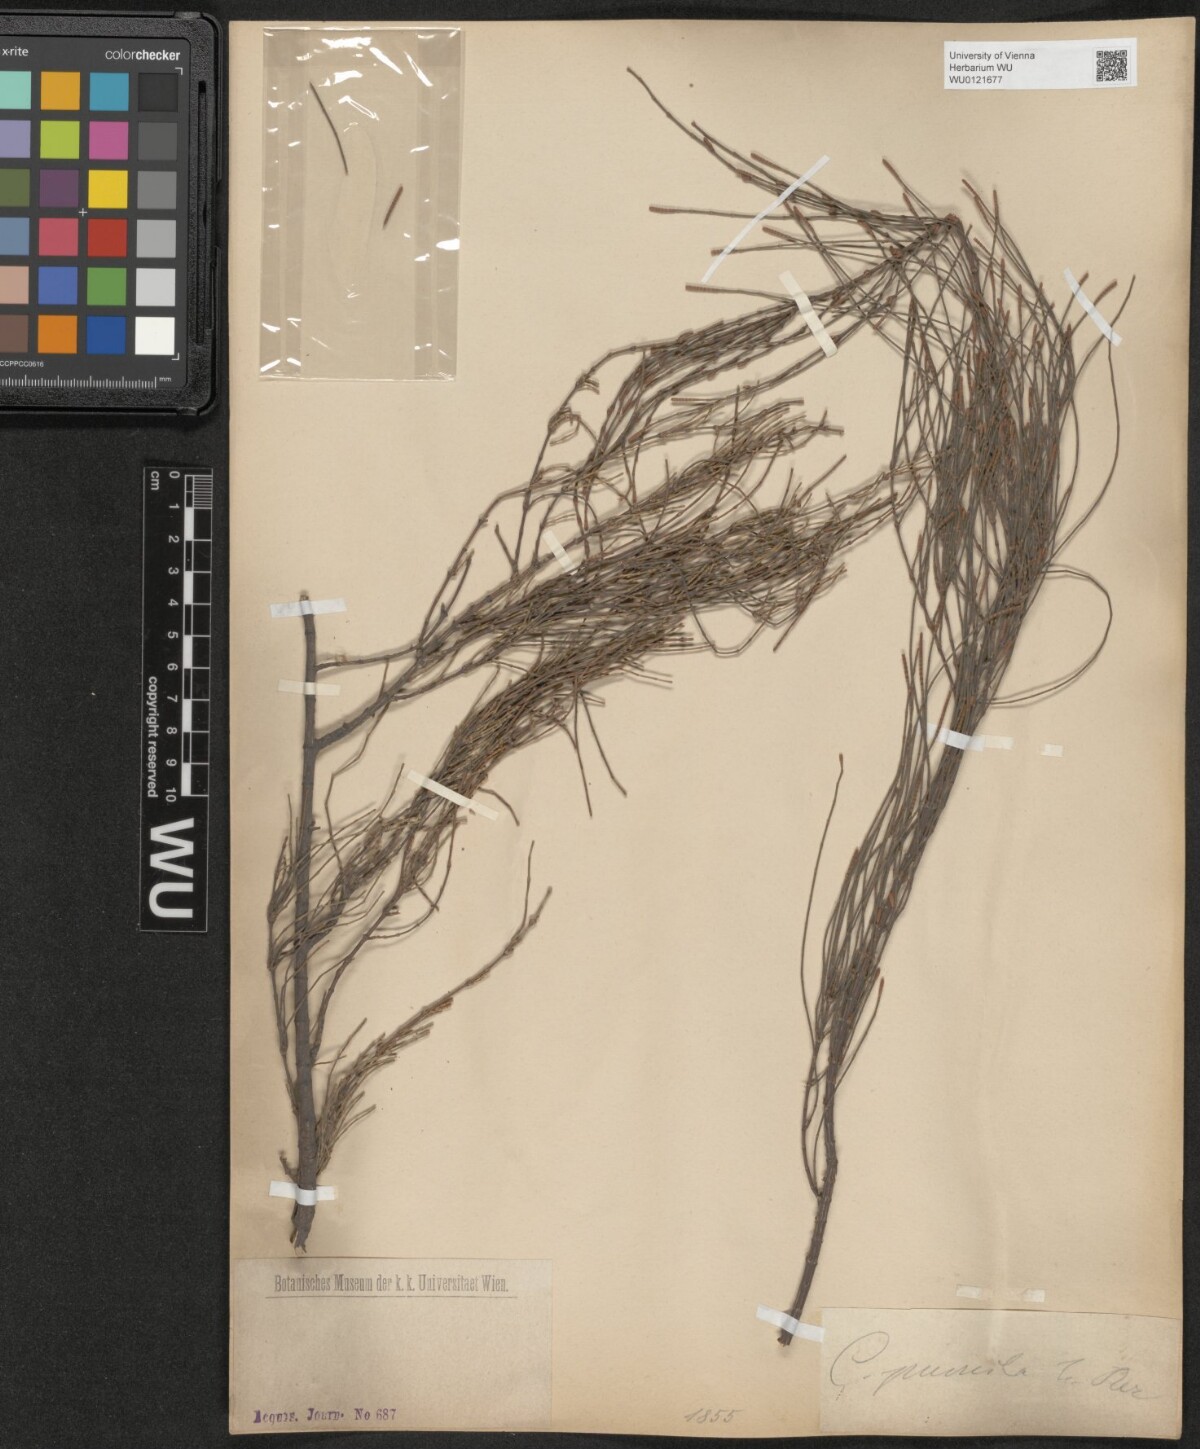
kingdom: Plantae
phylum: Tracheophyta
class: Magnoliopsida
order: Fagales
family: Casuarinaceae
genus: Allocasuarina
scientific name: Allocasuarina paludosa
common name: Scrub she-oak
